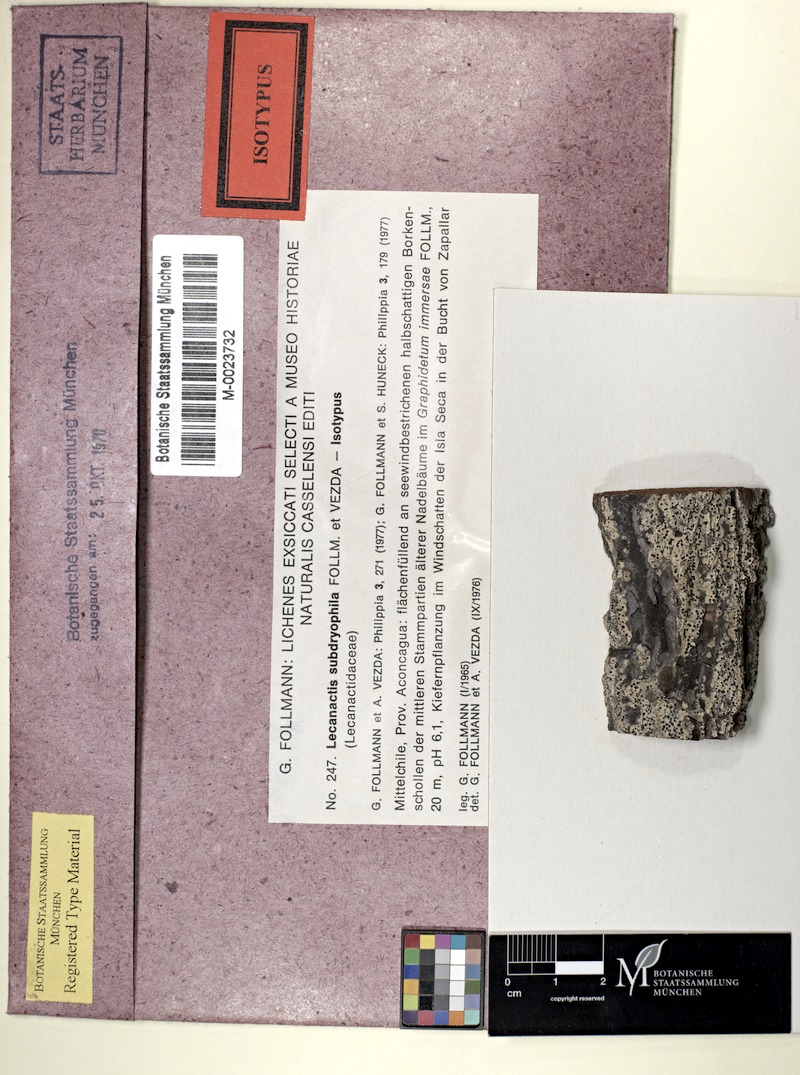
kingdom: Fungi
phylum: Ascomycota
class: Arthoniomycetes
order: Arthoniales
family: Lecanographaceae
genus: Lecanographa
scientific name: Lecanographa subdryophila
